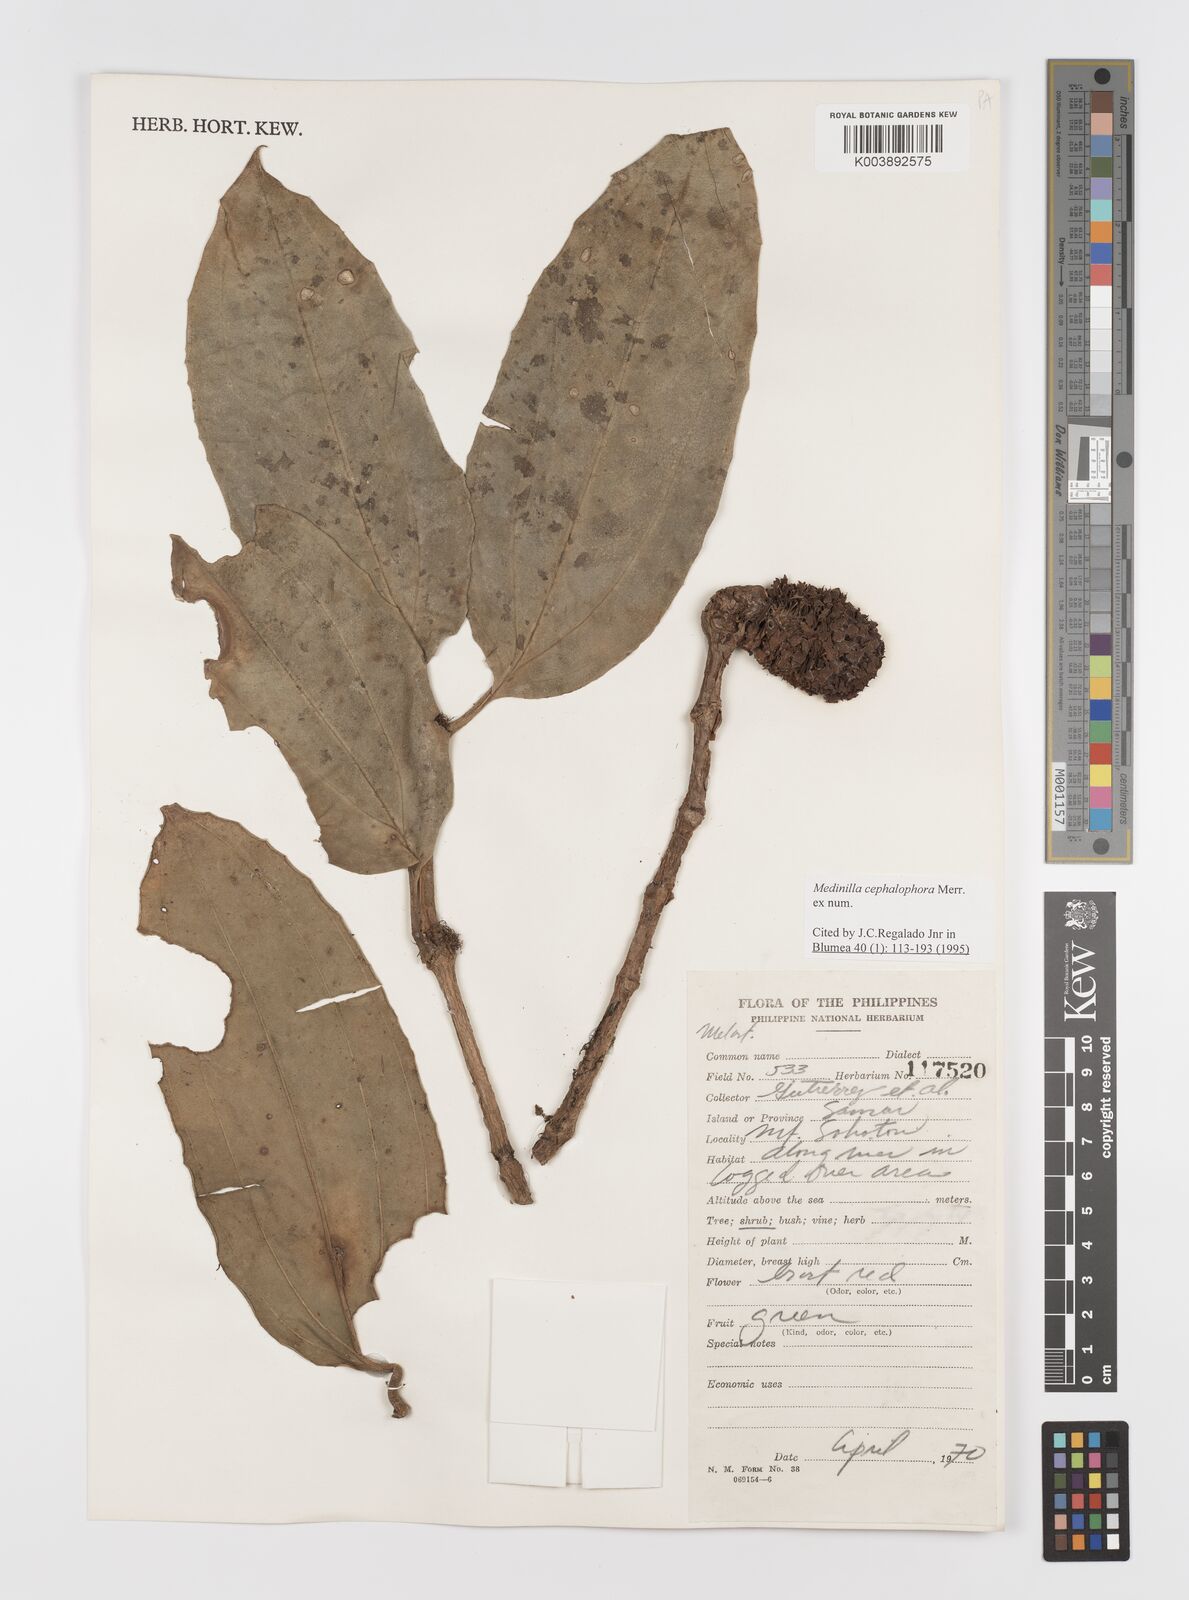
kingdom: Plantae
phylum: Tracheophyta
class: Magnoliopsida
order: Myrtales
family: Melastomataceae
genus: Medinilla
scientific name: Medinilla cephalophora
